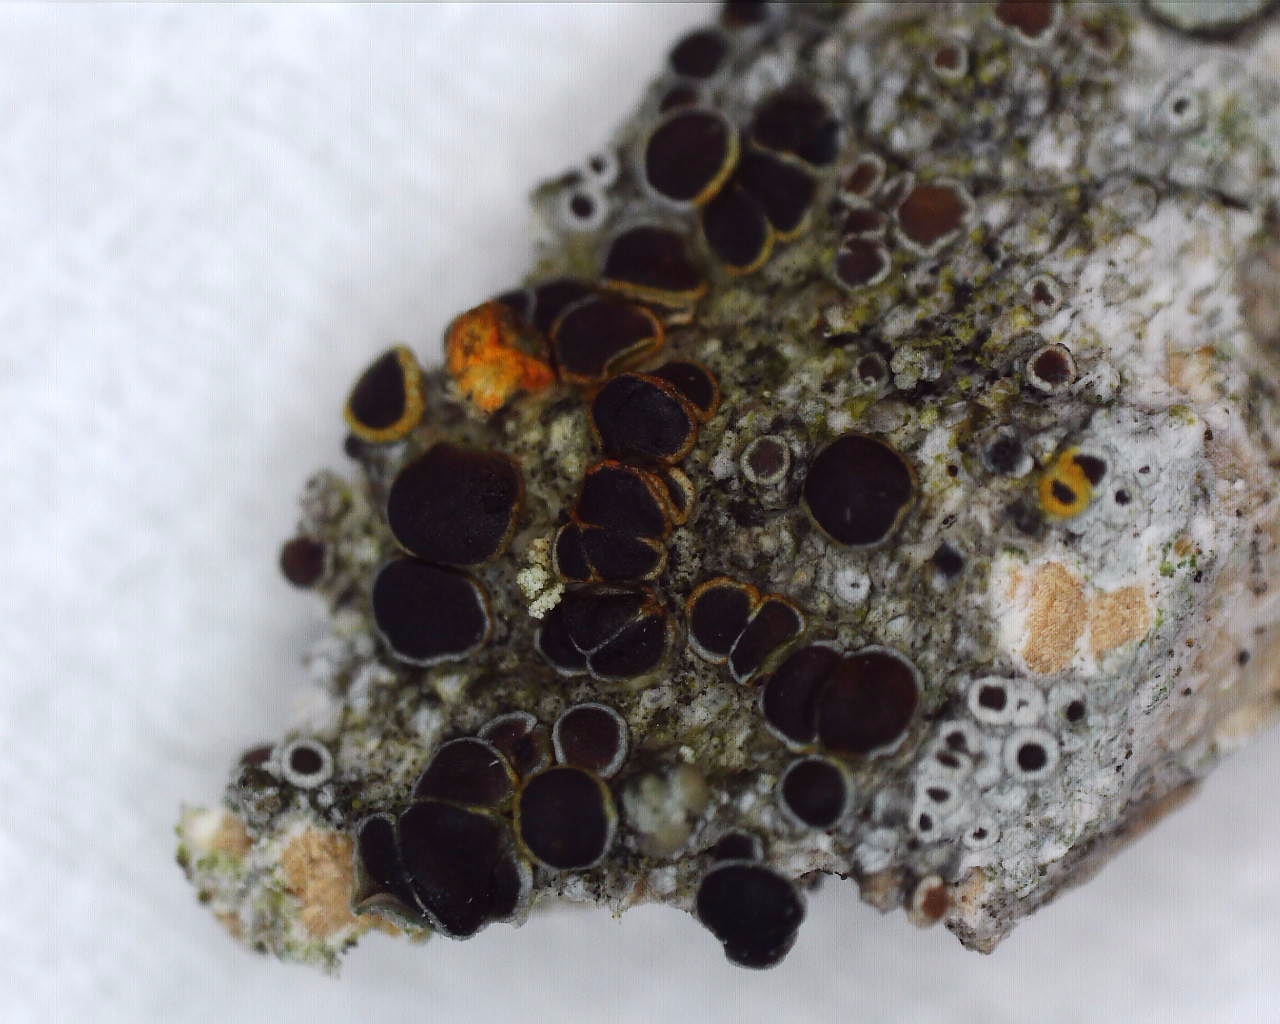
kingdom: Fungi
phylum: Ascomycota
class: Lecanoromycetes
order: Lecanorales
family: Lecanoraceae
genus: Lecanora
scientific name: Lecanora pulicaris
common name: almindelig kantskivelav
